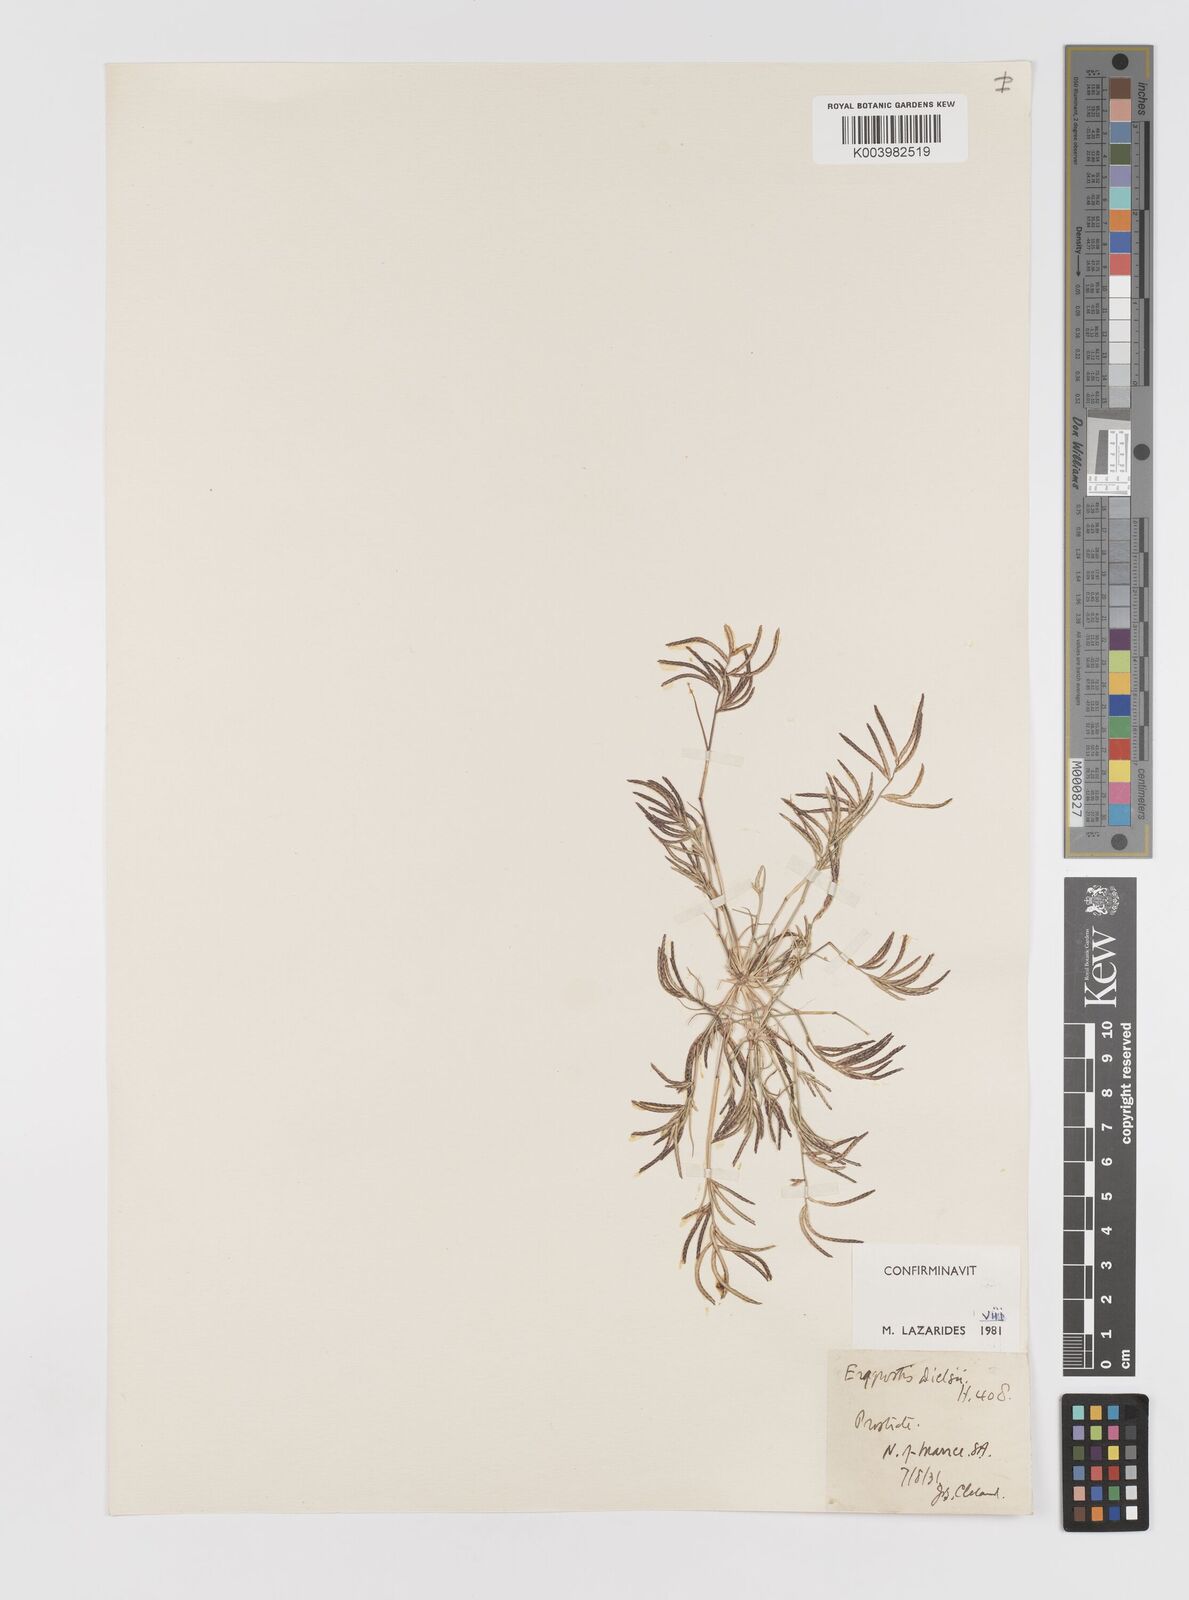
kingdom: Plantae
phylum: Tracheophyta
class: Liliopsida
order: Poales
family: Poaceae
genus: Eragrostis
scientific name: Eragrostis dielsii
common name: Lovegrass
